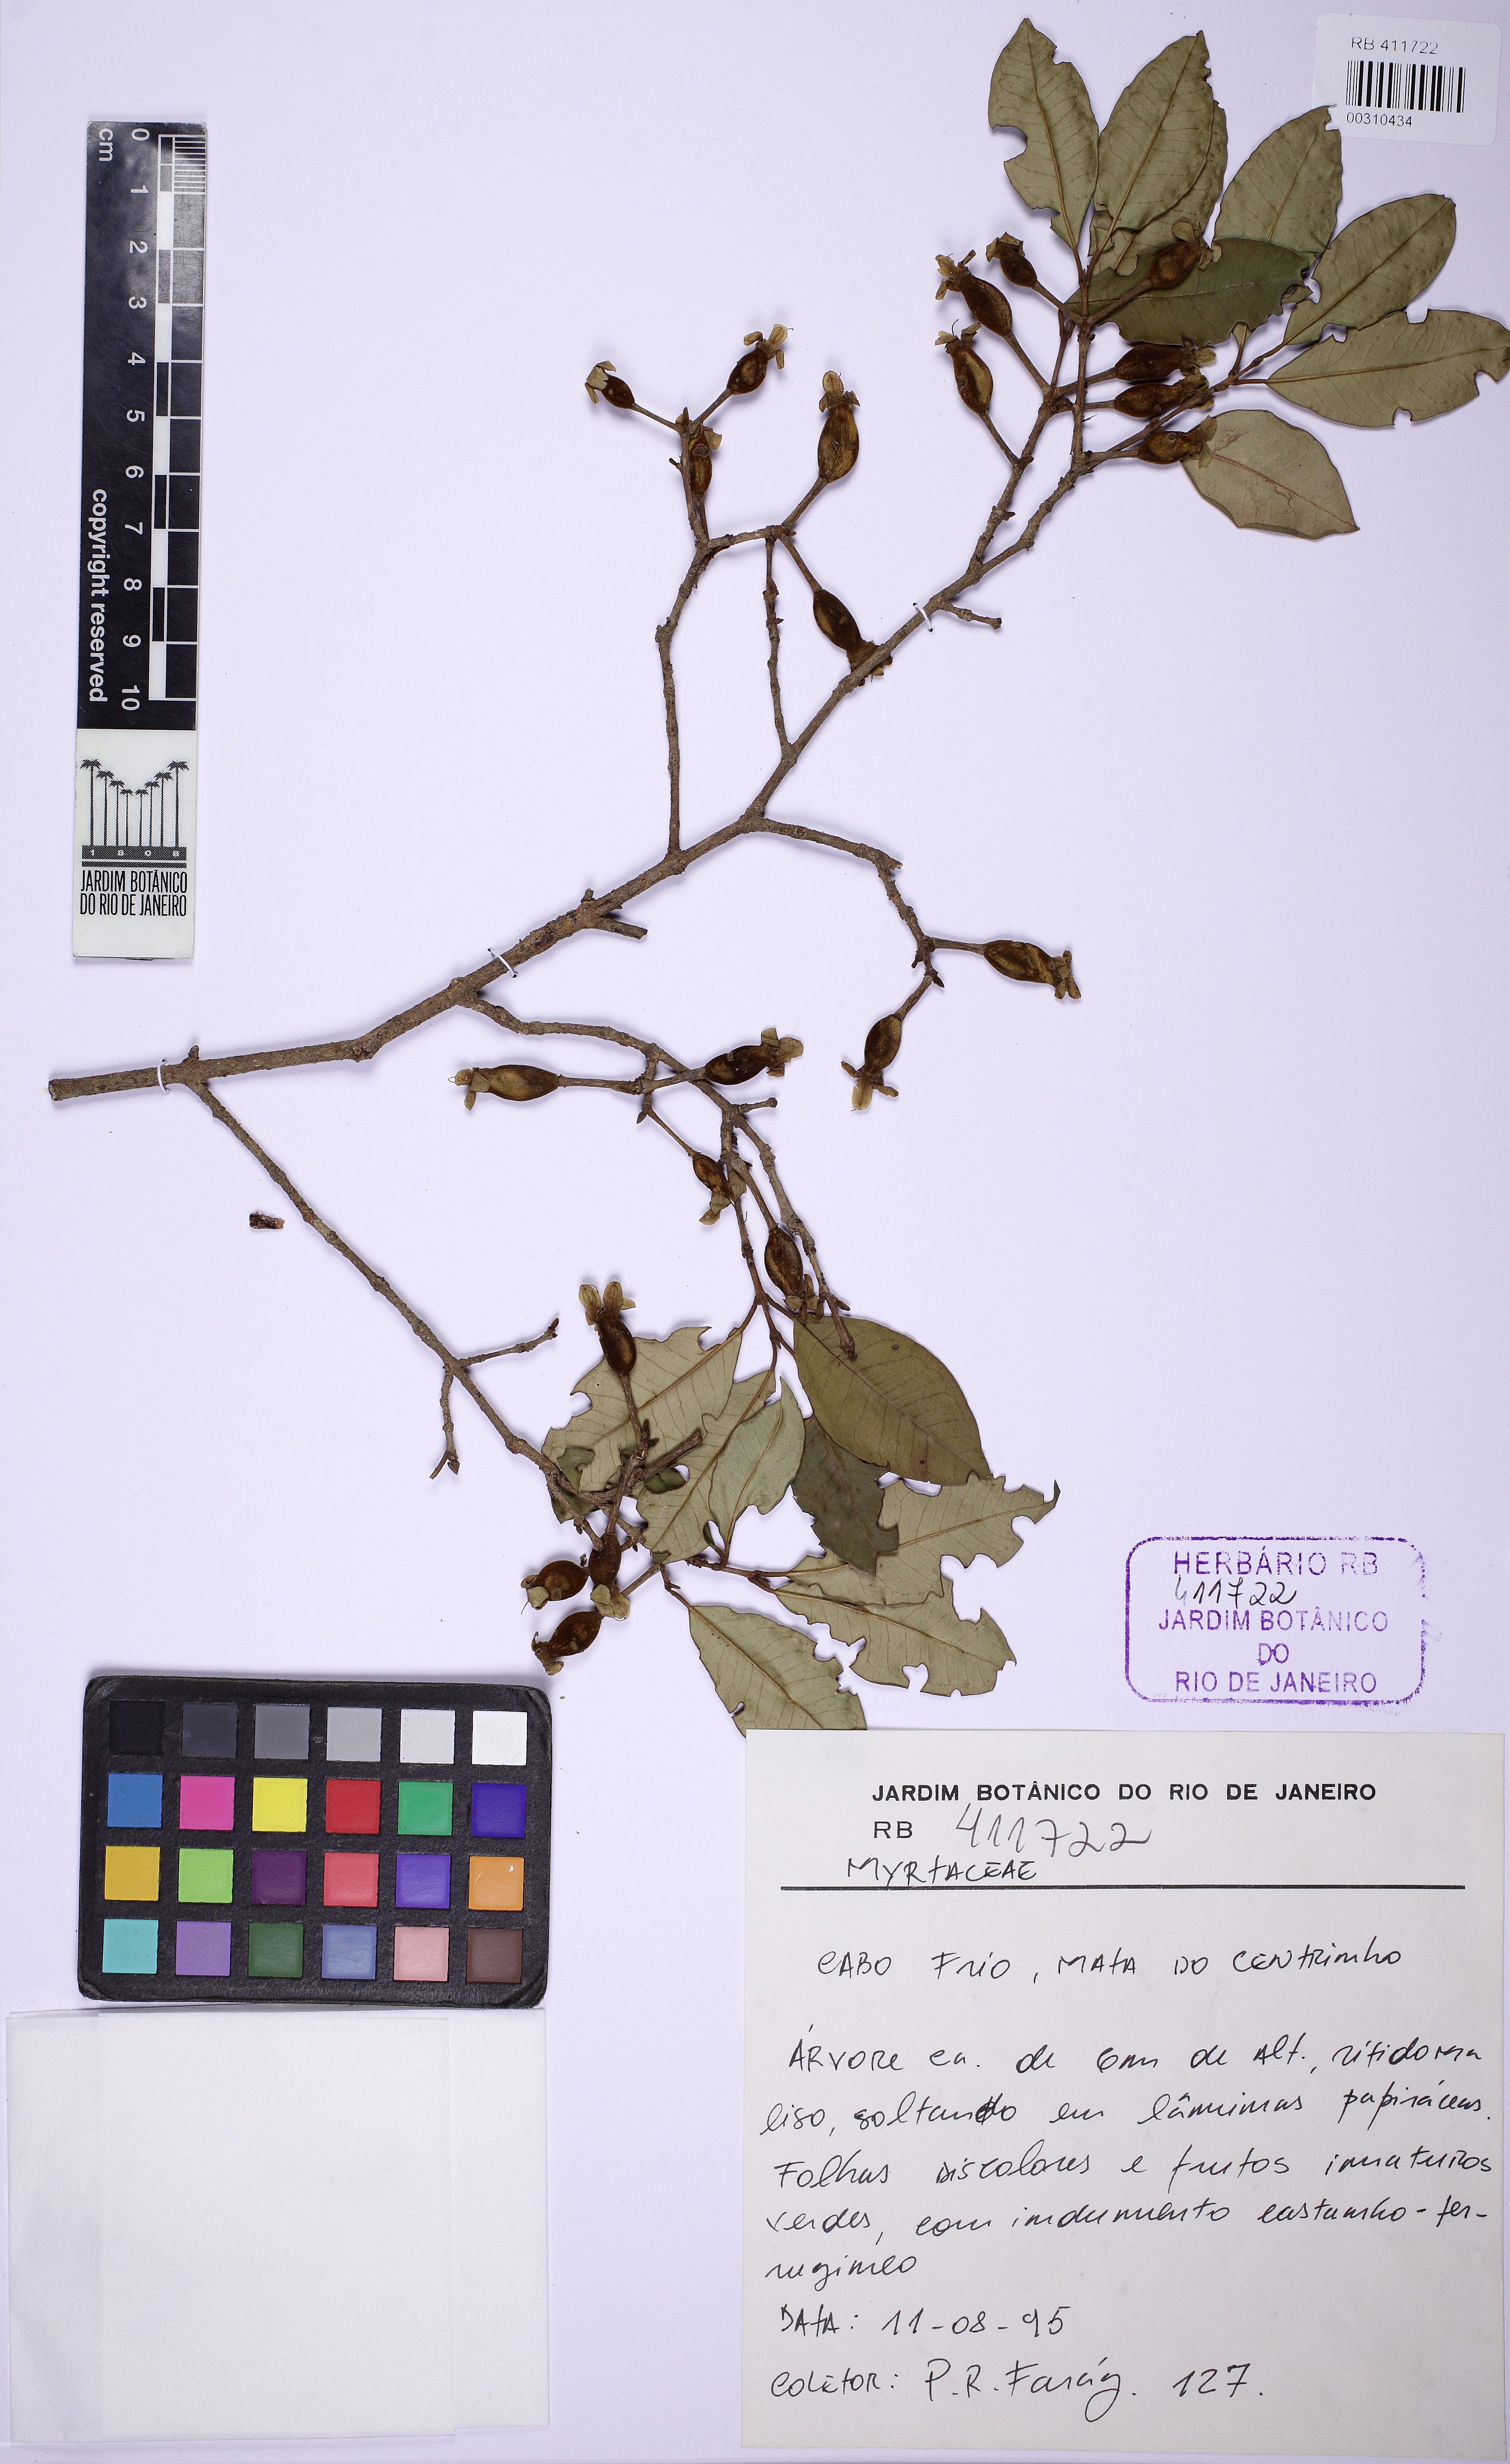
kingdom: Plantae
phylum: Tracheophyta
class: Magnoliopsida
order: Myrtales
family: Myrtaceae
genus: Eugenia
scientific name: Eugenia farneyi
